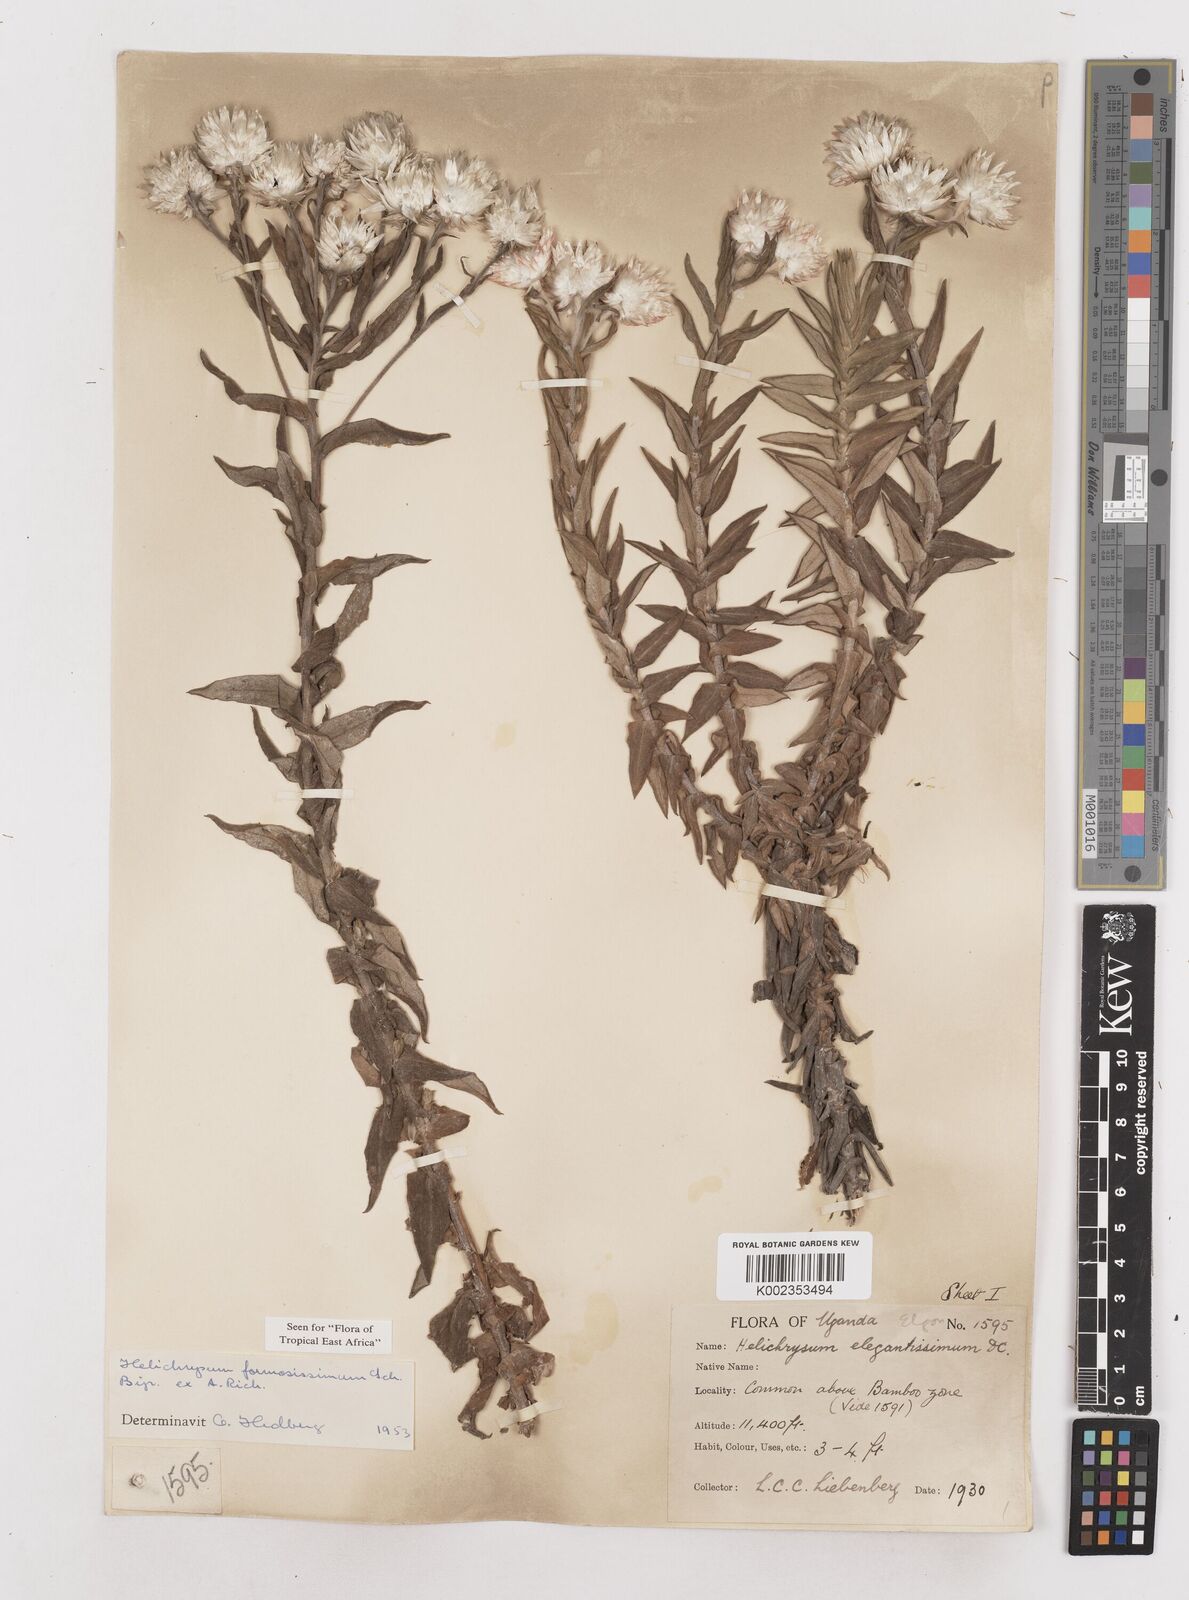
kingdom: Plantae
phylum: Tracheophyta
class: Magnoliopsida
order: Asterales
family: Asteraceae
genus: Helichrysum
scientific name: Helichrysum formosissimum
